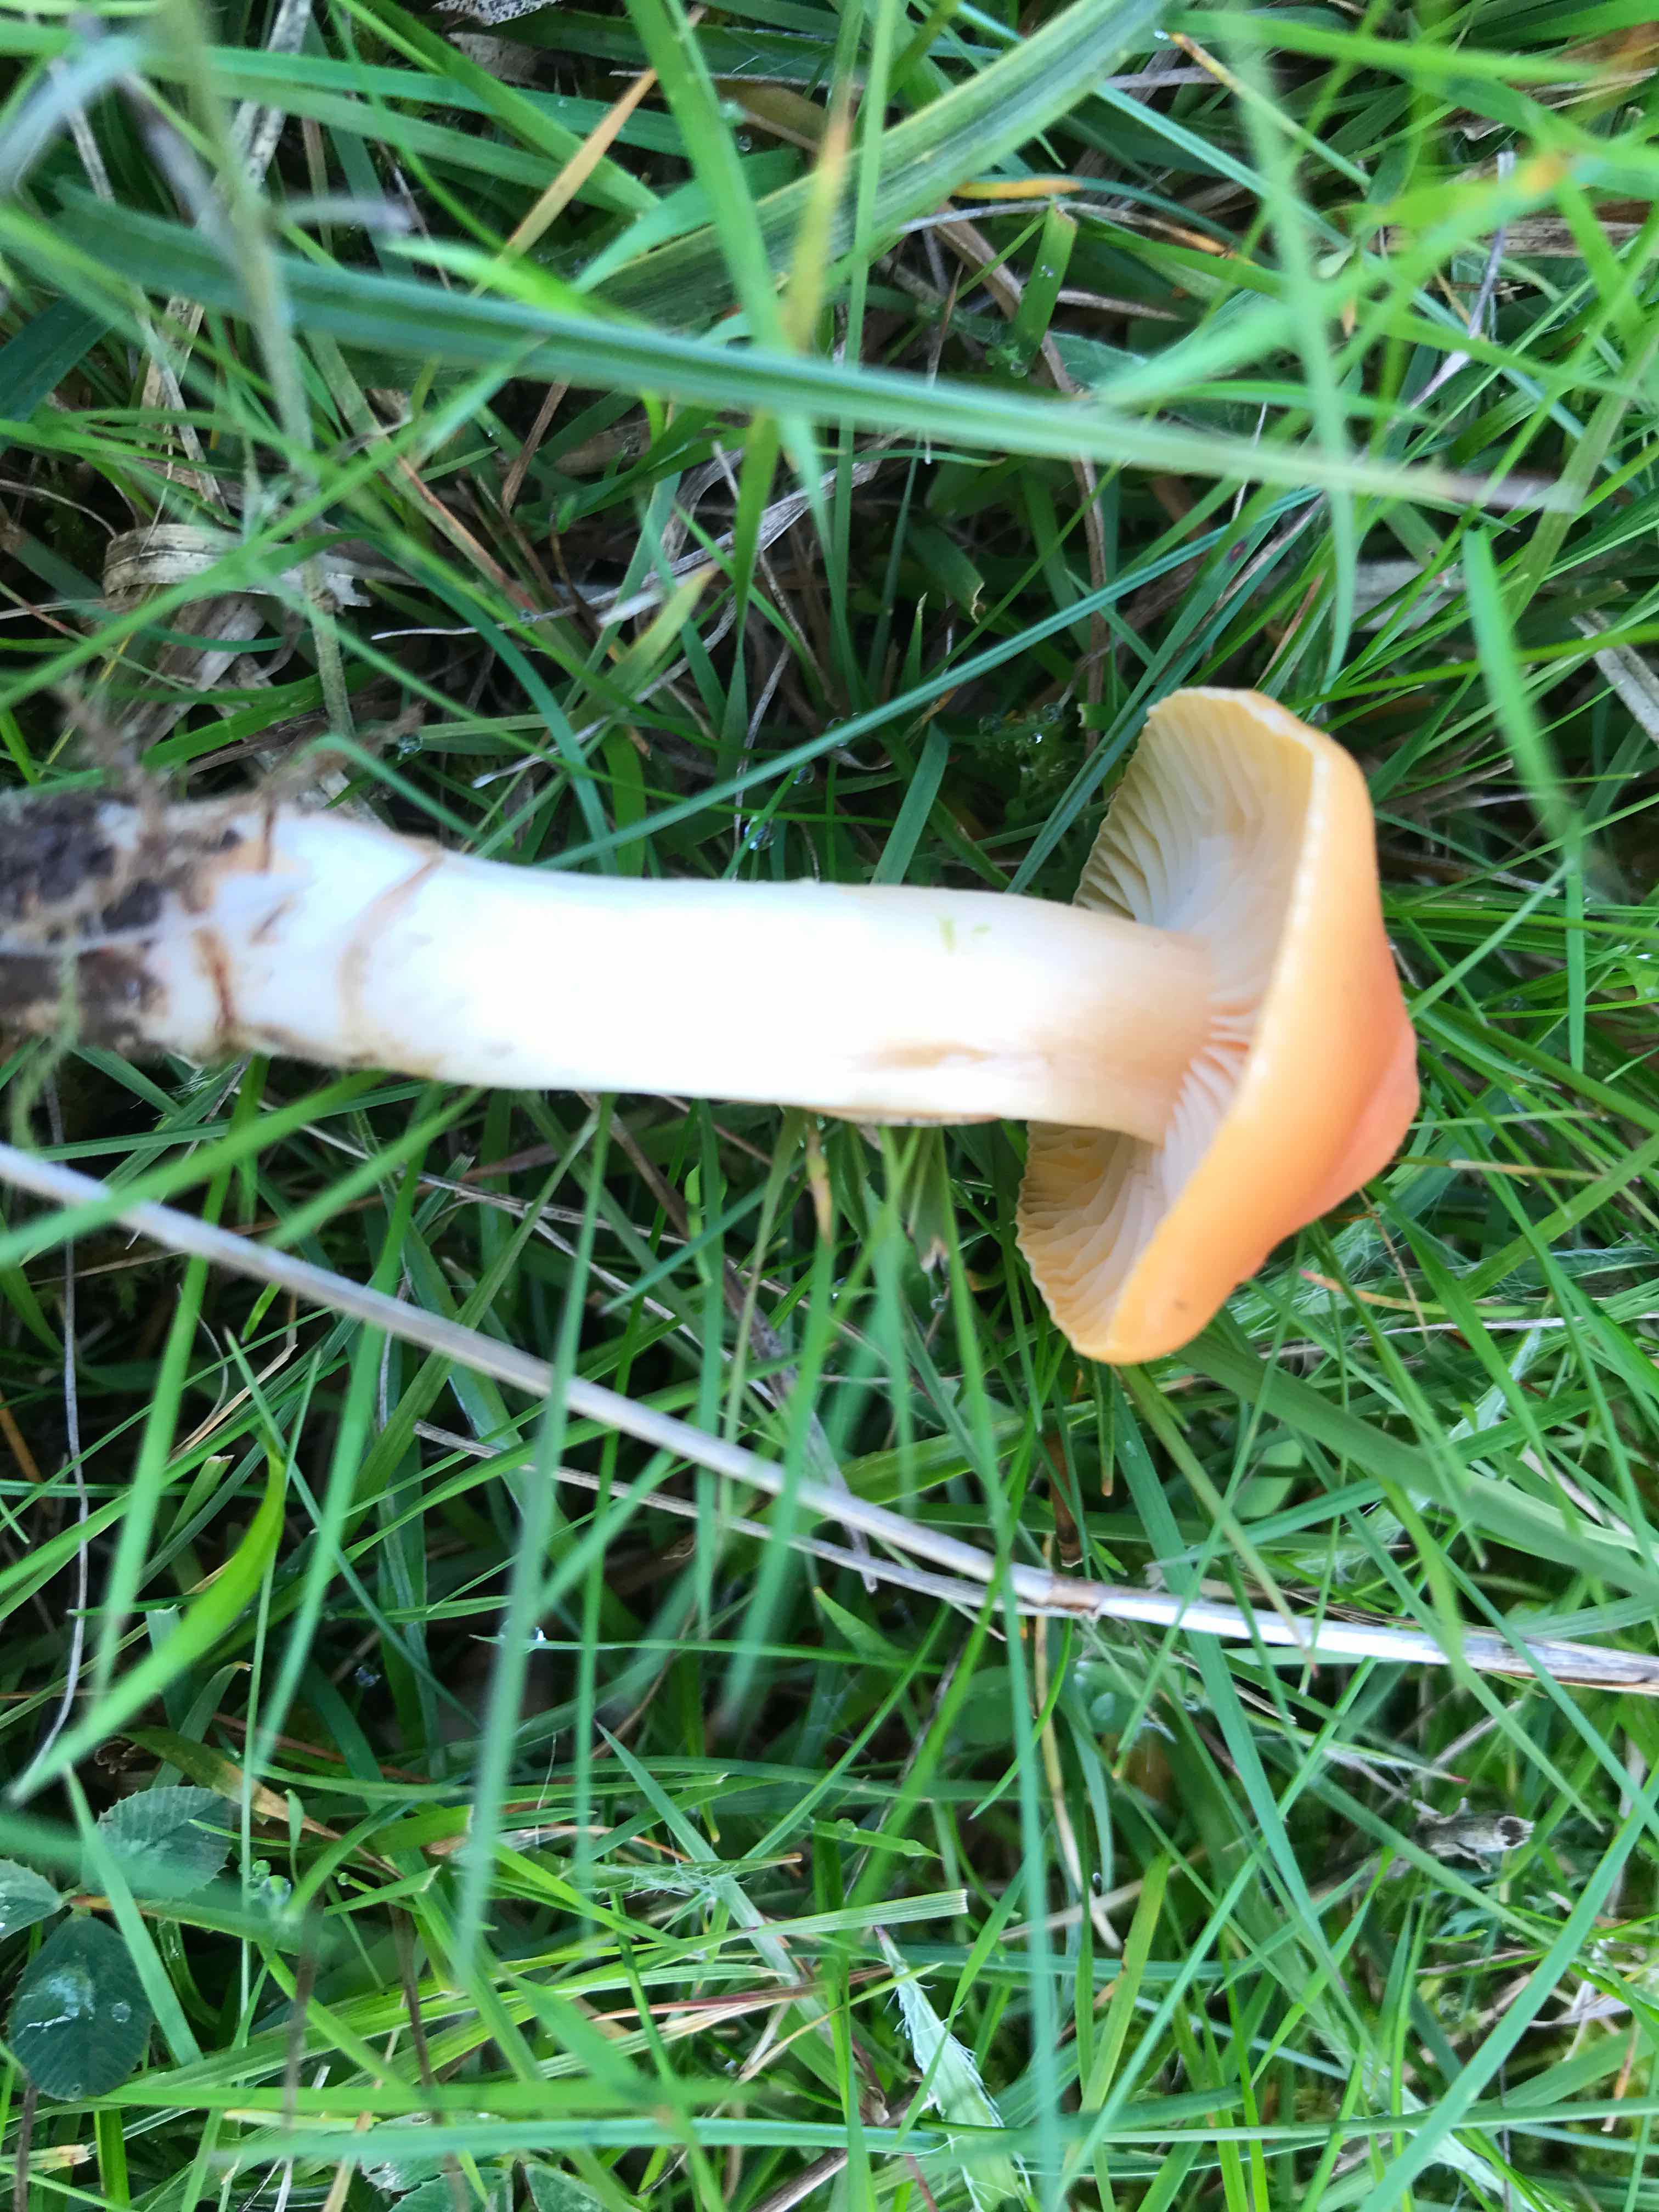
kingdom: Fungi
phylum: Basidiomycota
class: Agaricomycetes
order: Agaricales
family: Hygrophoraceae
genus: Cuphophyllus
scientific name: Cuphophyllus pratensis
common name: eng-vokshat
